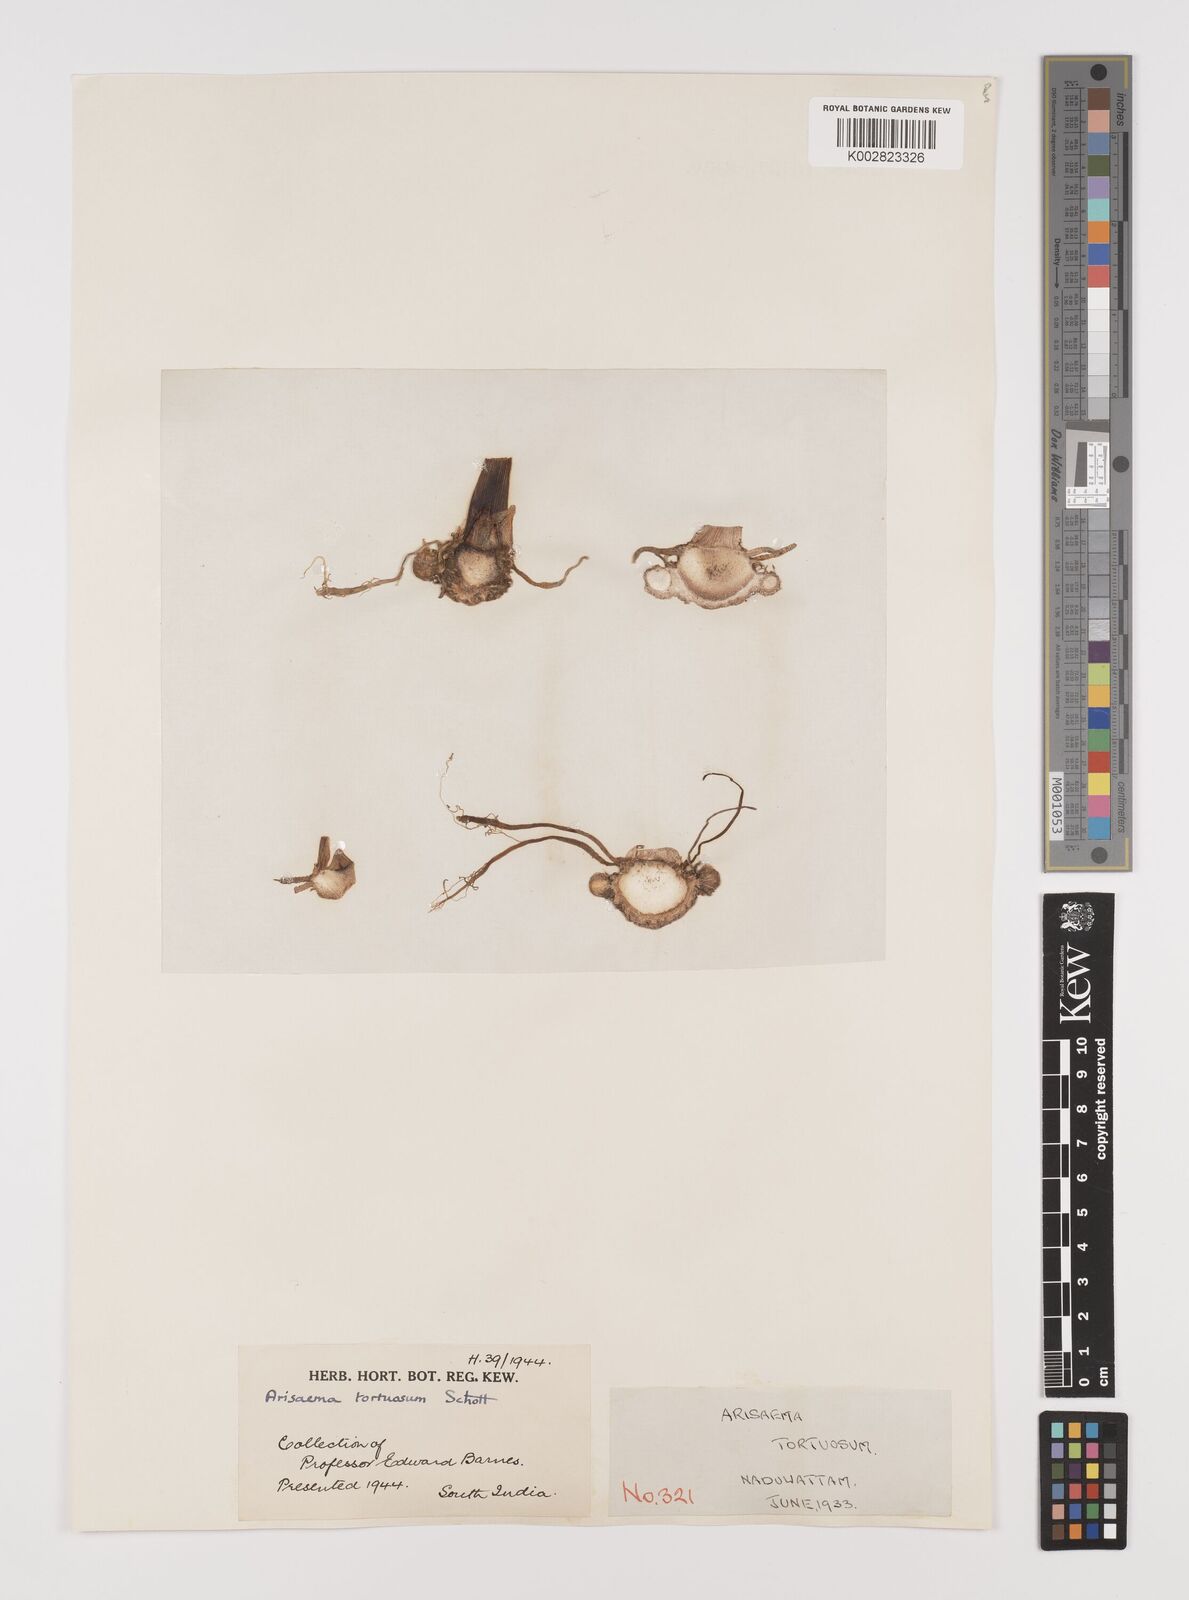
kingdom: Plantae
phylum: Tracheophyta
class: Liliopsida
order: Alismatales
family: Araceae
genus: Arisaema
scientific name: Arisaema tortuosum
